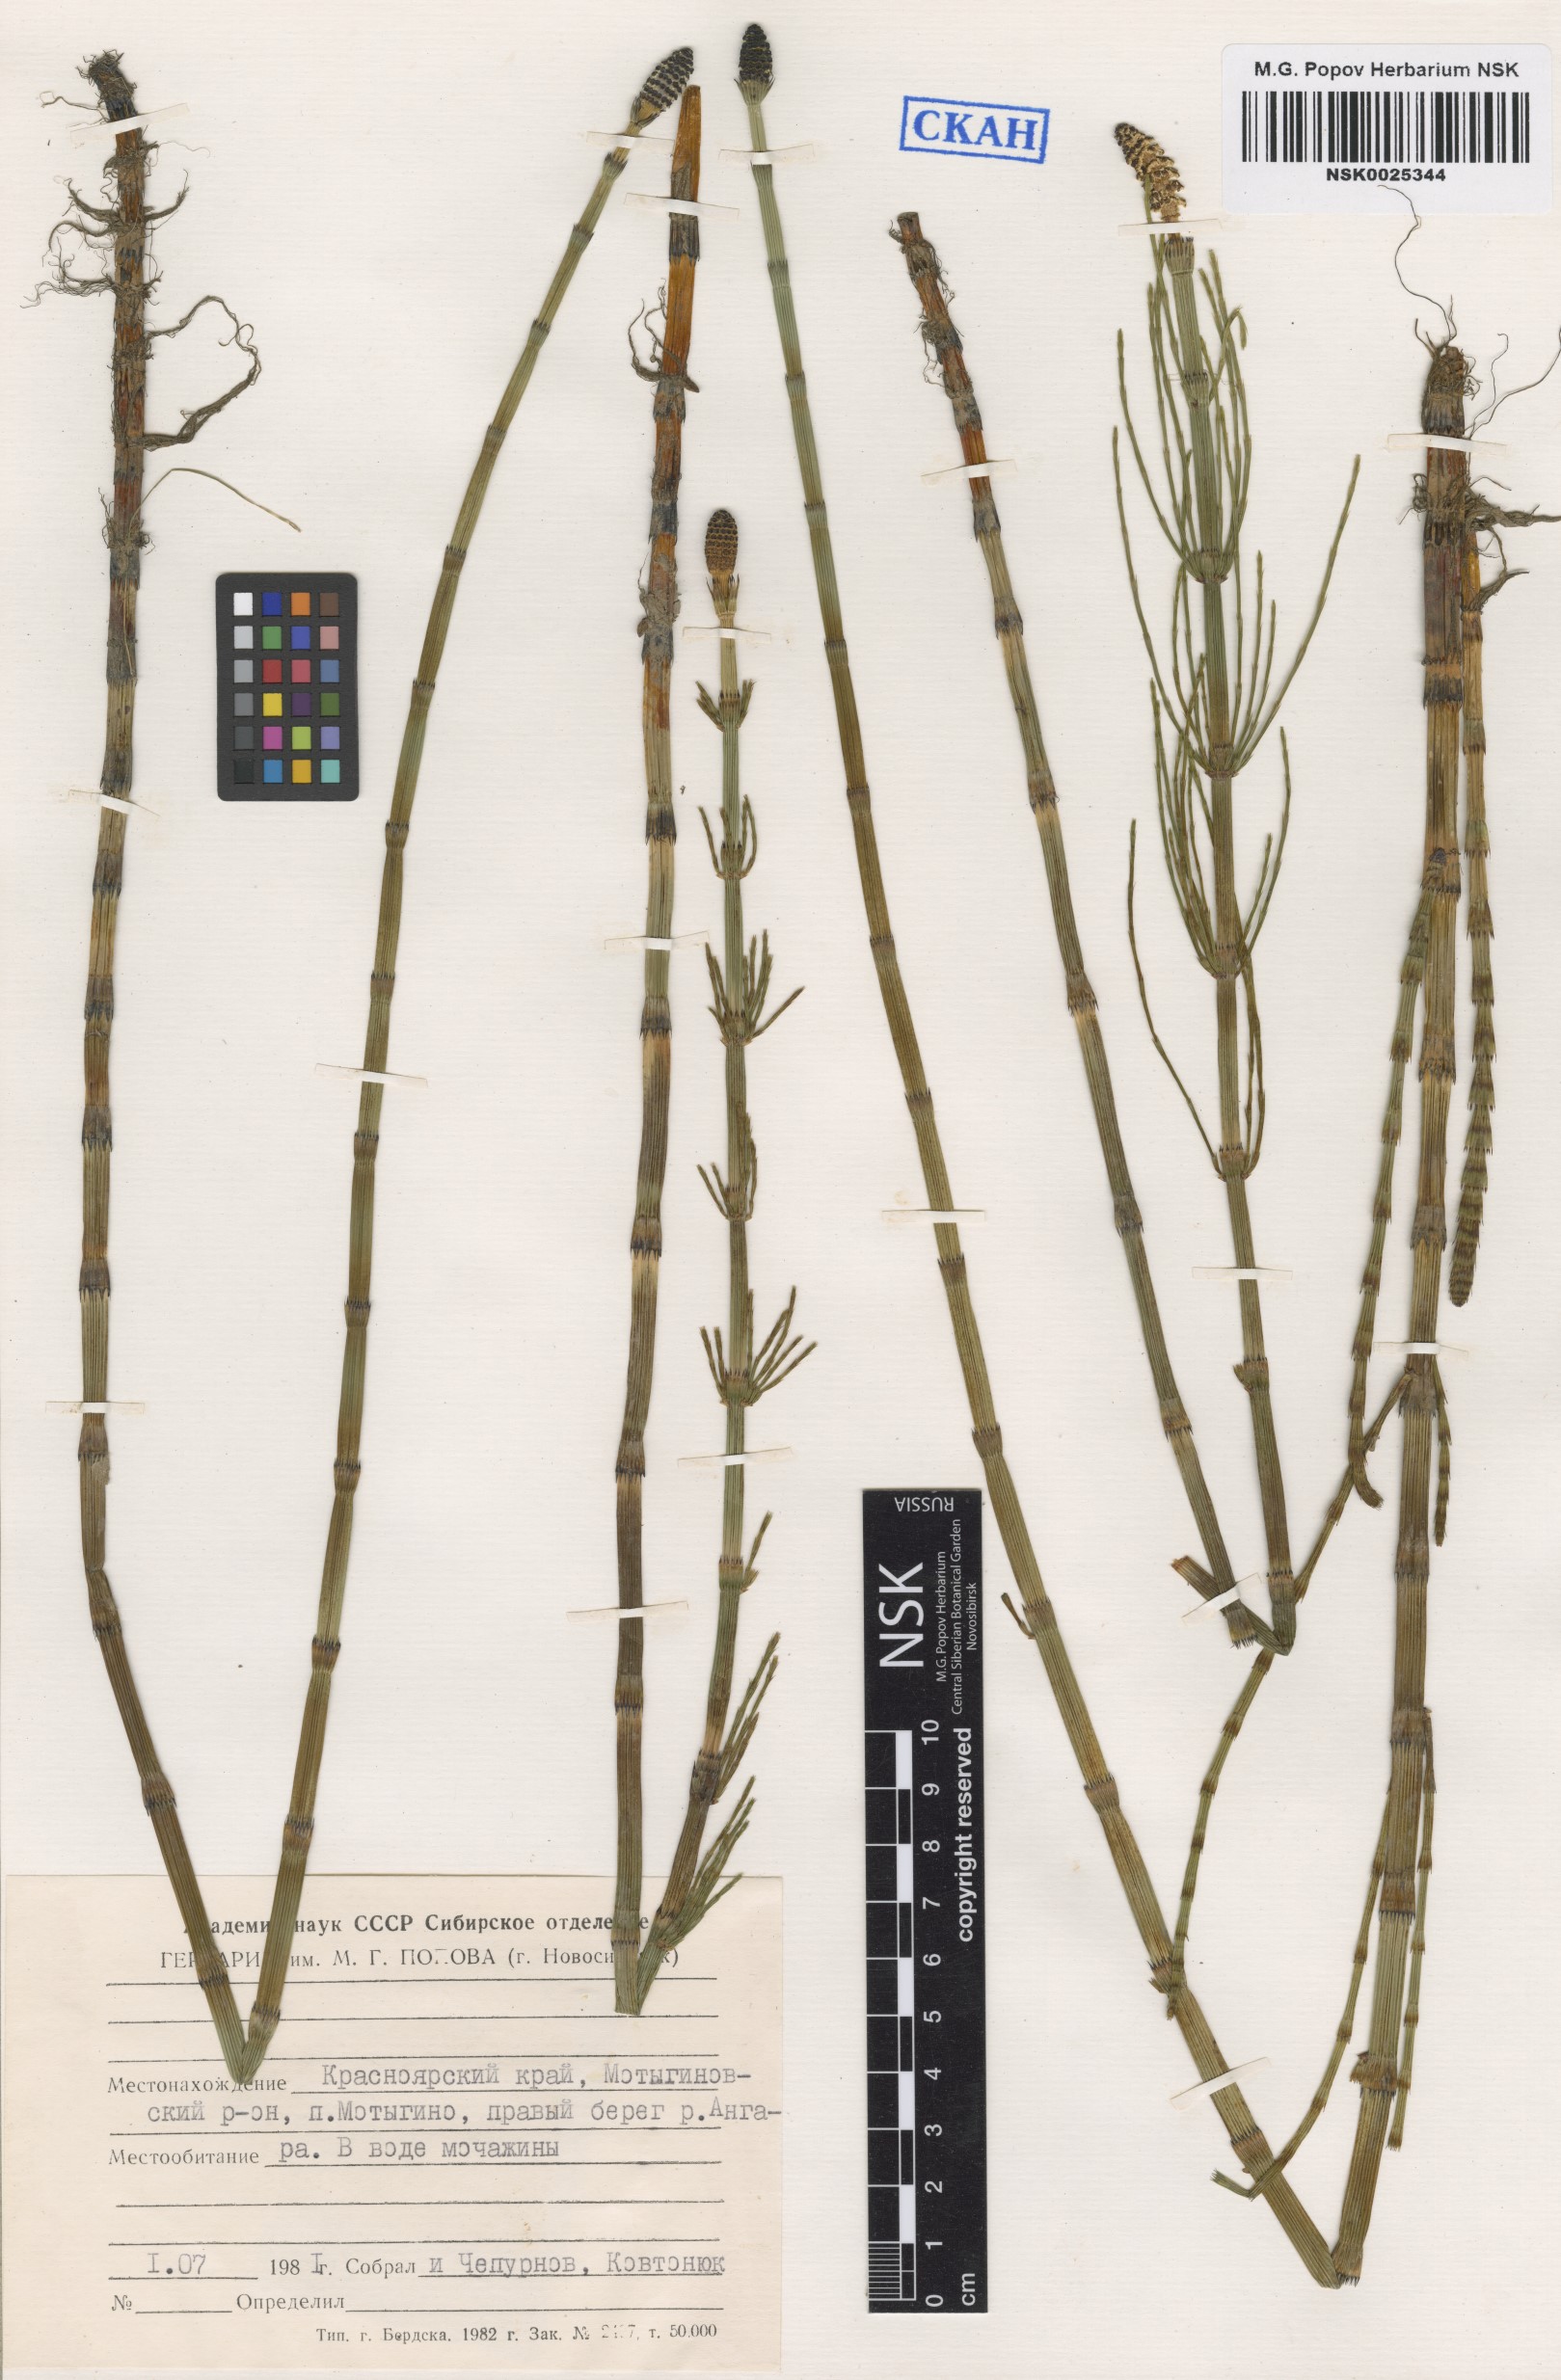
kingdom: Plantae
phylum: Tracheophyta
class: Polypodiopsida
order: Equisetales
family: Equisetaceae
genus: Equisetum
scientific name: Equisetum fluviatile
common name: Water horsetail
